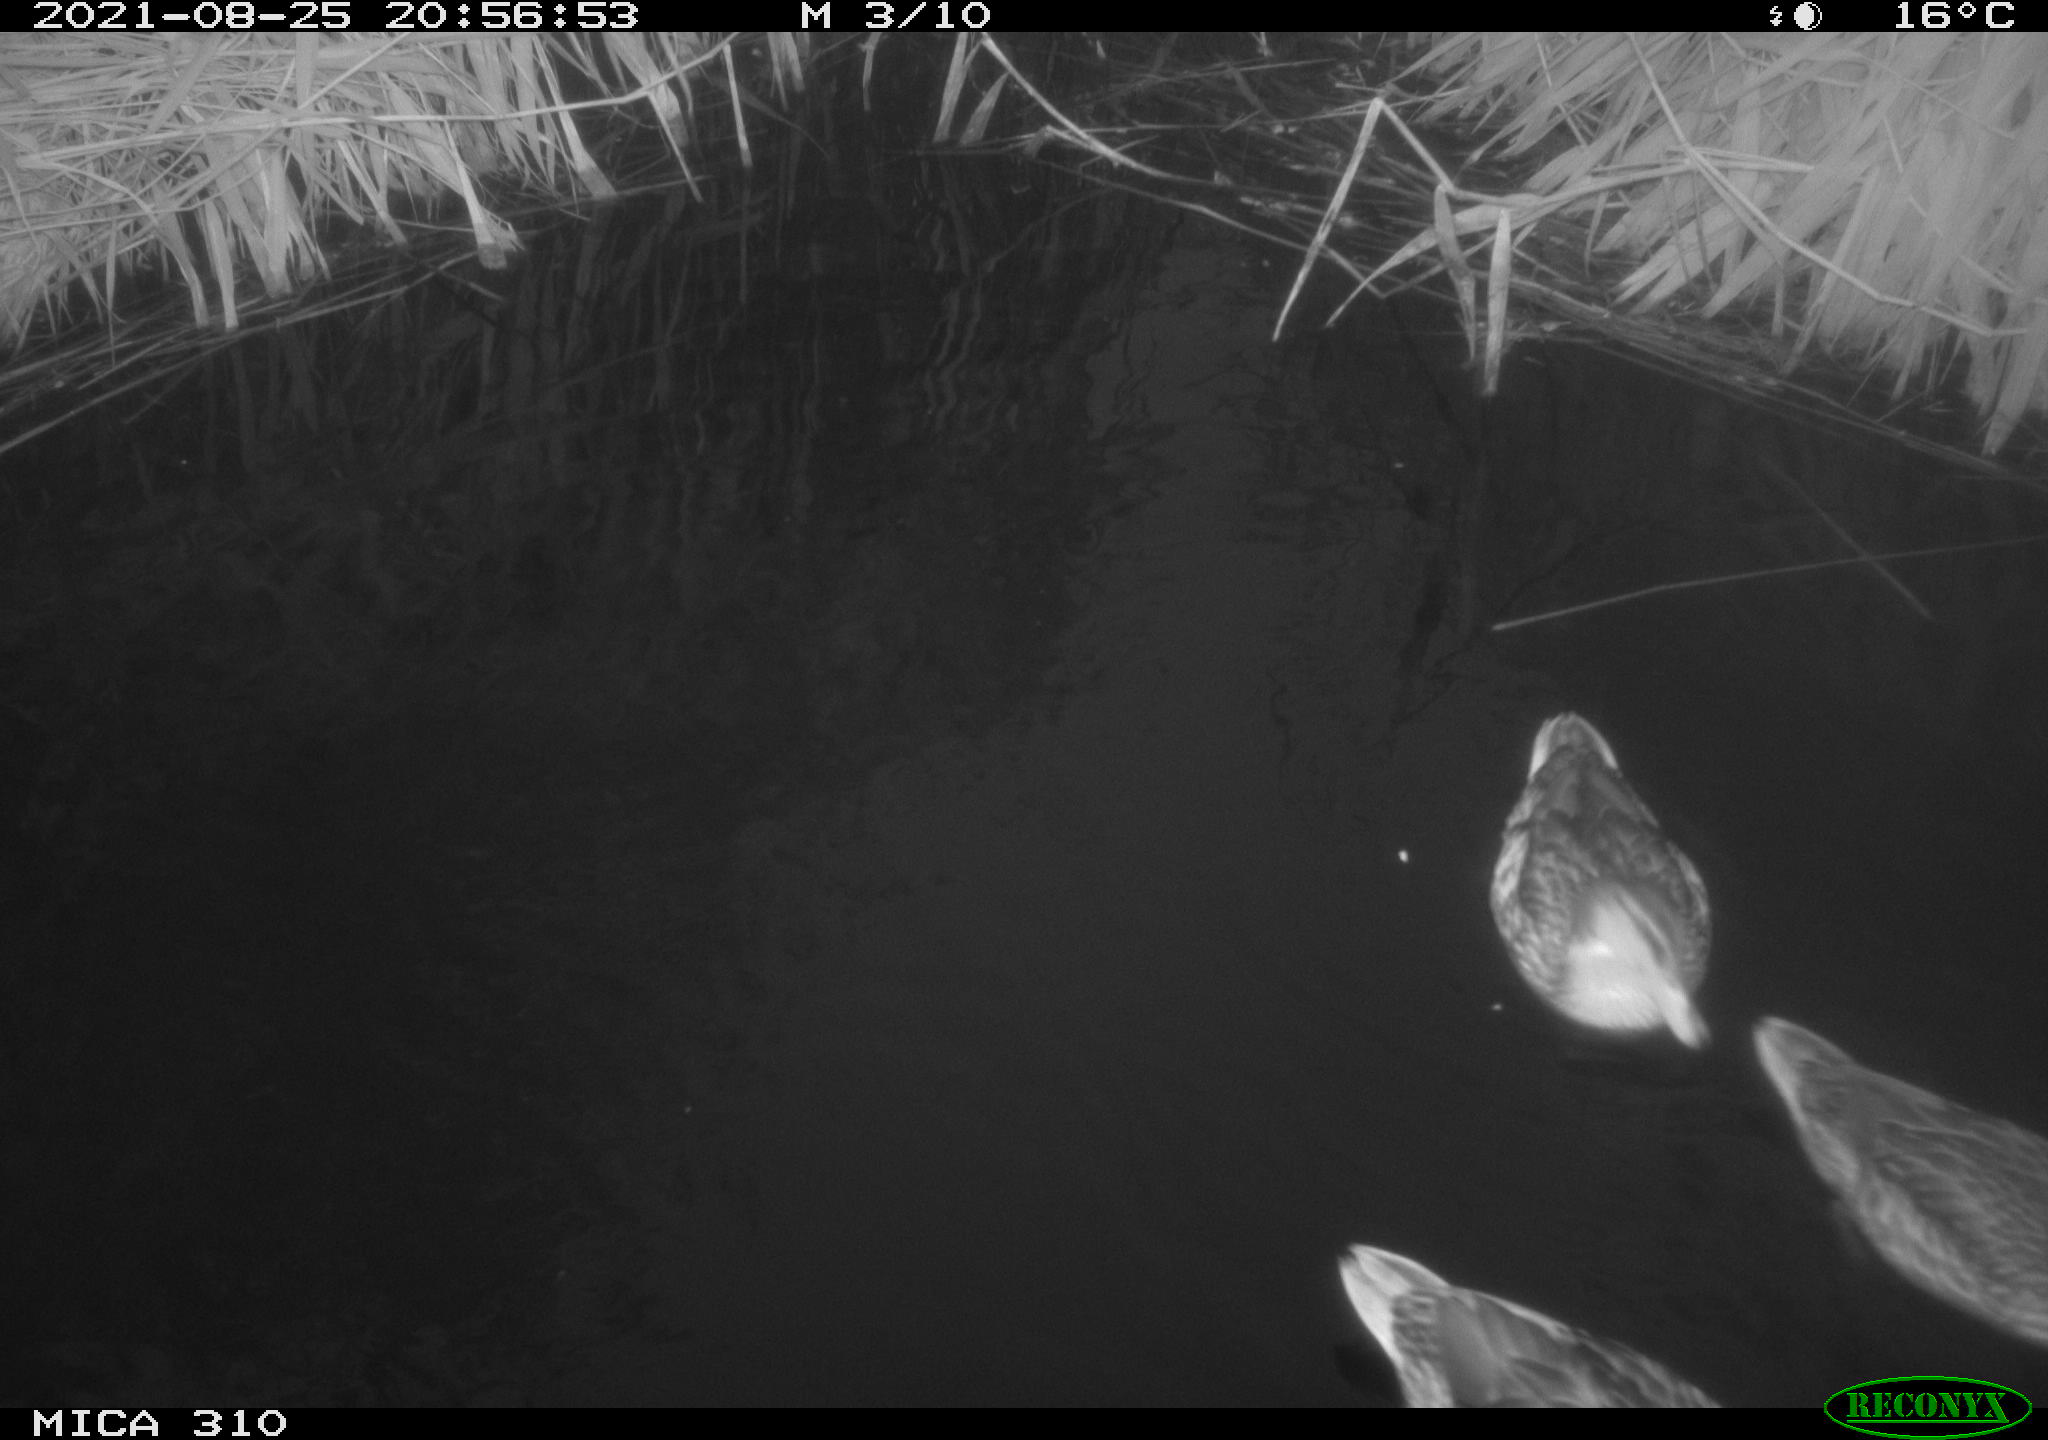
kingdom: Animalia
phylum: Chordata
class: Aves
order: Anseriformes
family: Anatidae
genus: Anas
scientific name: Anas platyrhynchos
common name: Mallard
